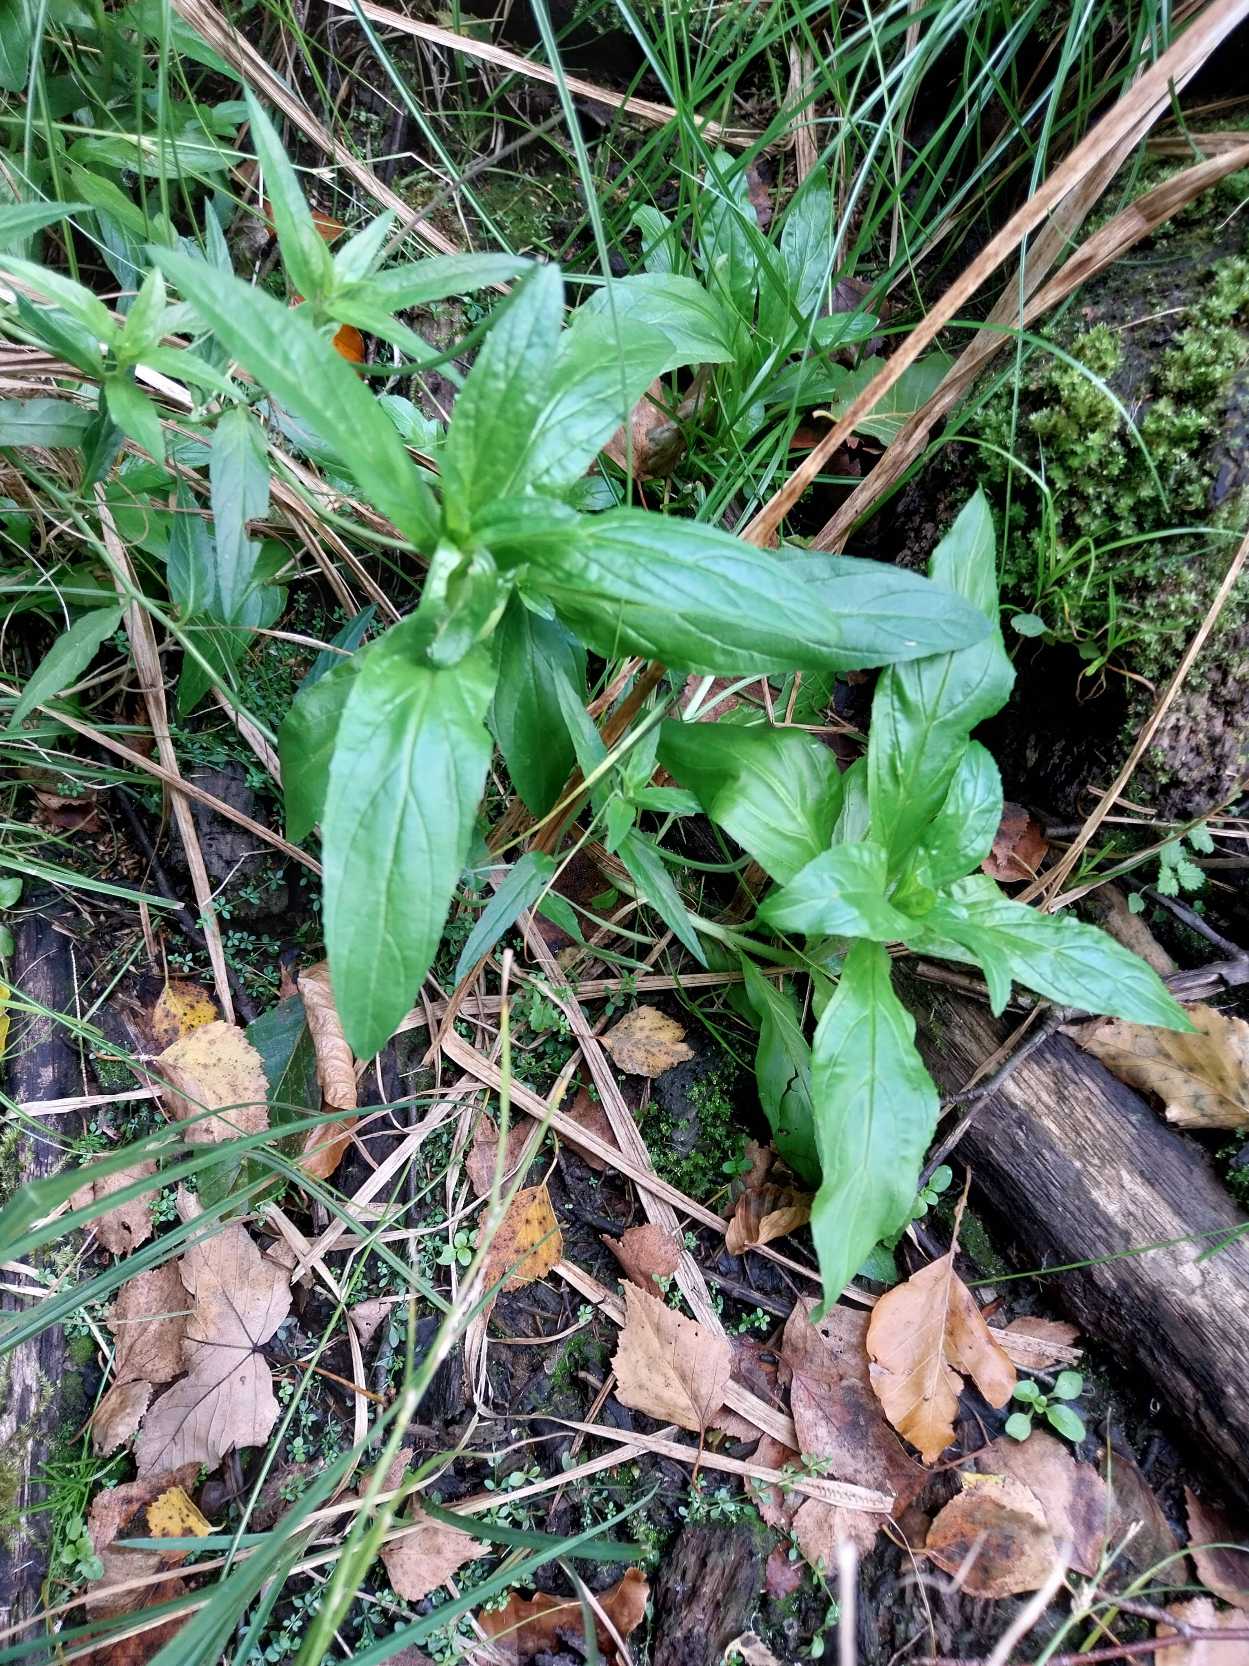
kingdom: Plantae
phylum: Tracheophyta
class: Magnoliopsida
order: Myrtales
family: Onagraceae
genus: Epilobium
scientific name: Epilobium hirsutum
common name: Lådden dueurt
